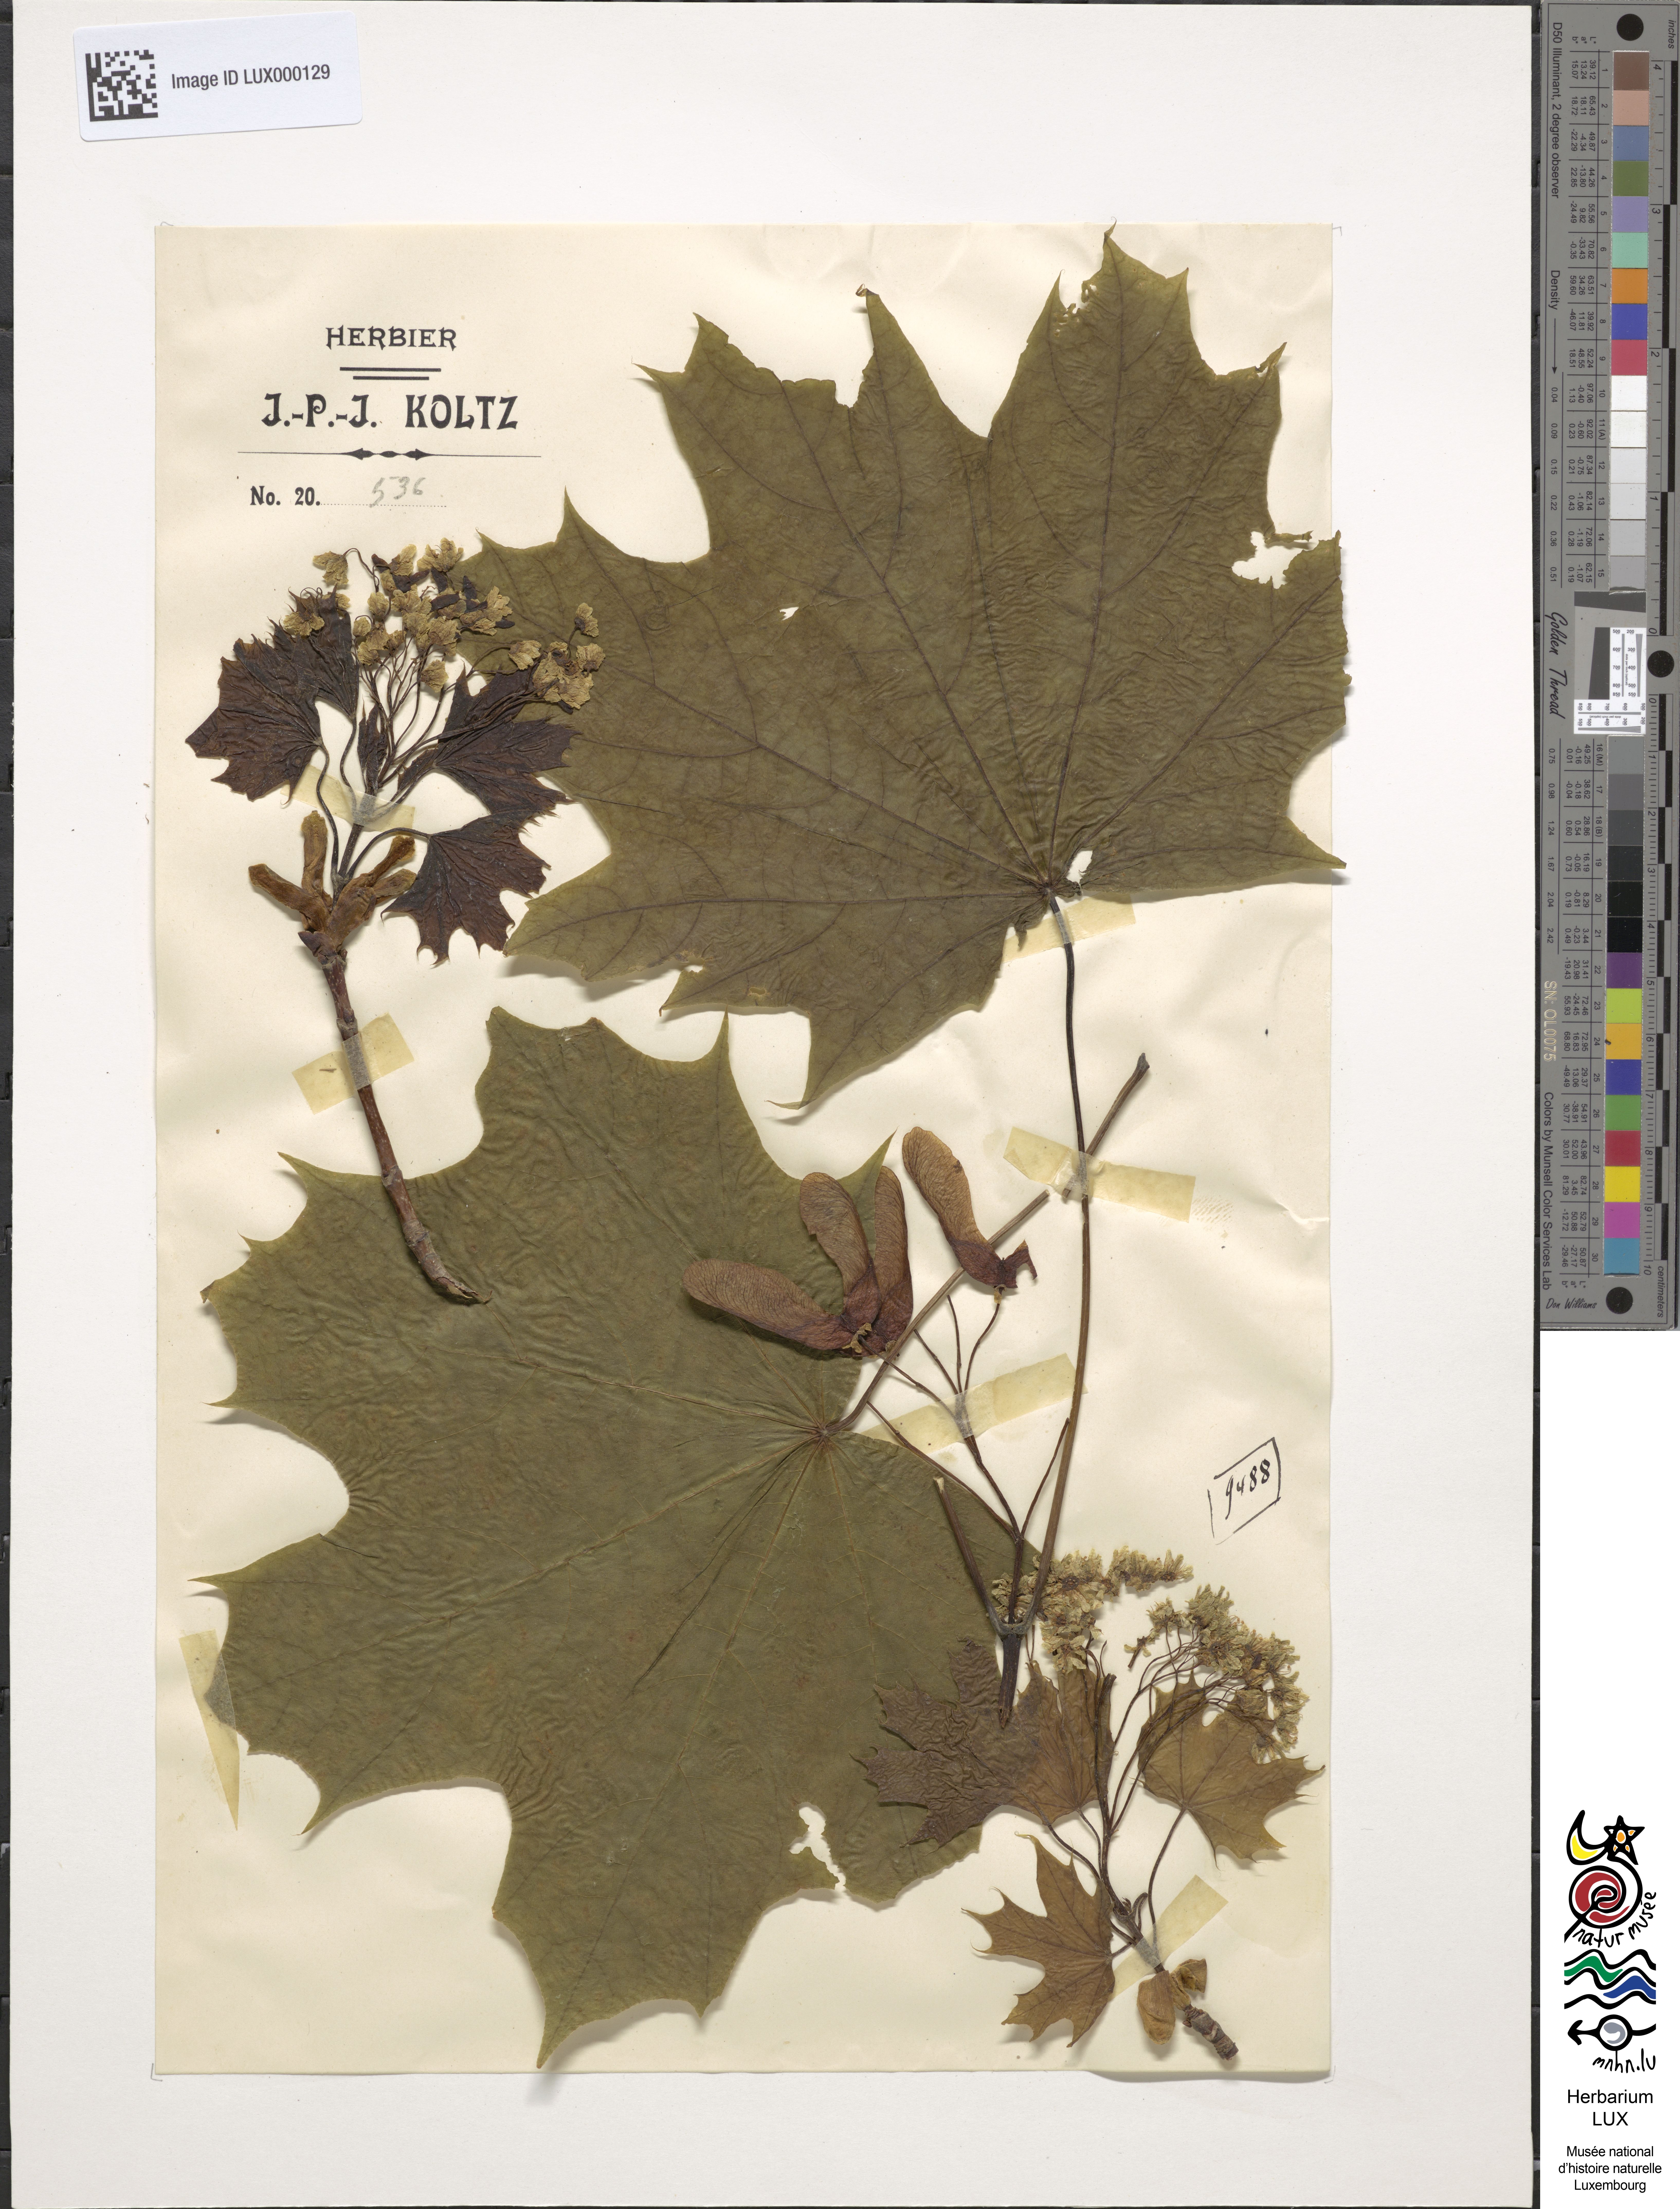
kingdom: Plantae
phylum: Tracheophyta
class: Magnoliopsida
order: Sapindales
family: Sapindaceae
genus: Acer
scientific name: Acer platanoides
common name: Norway maple
